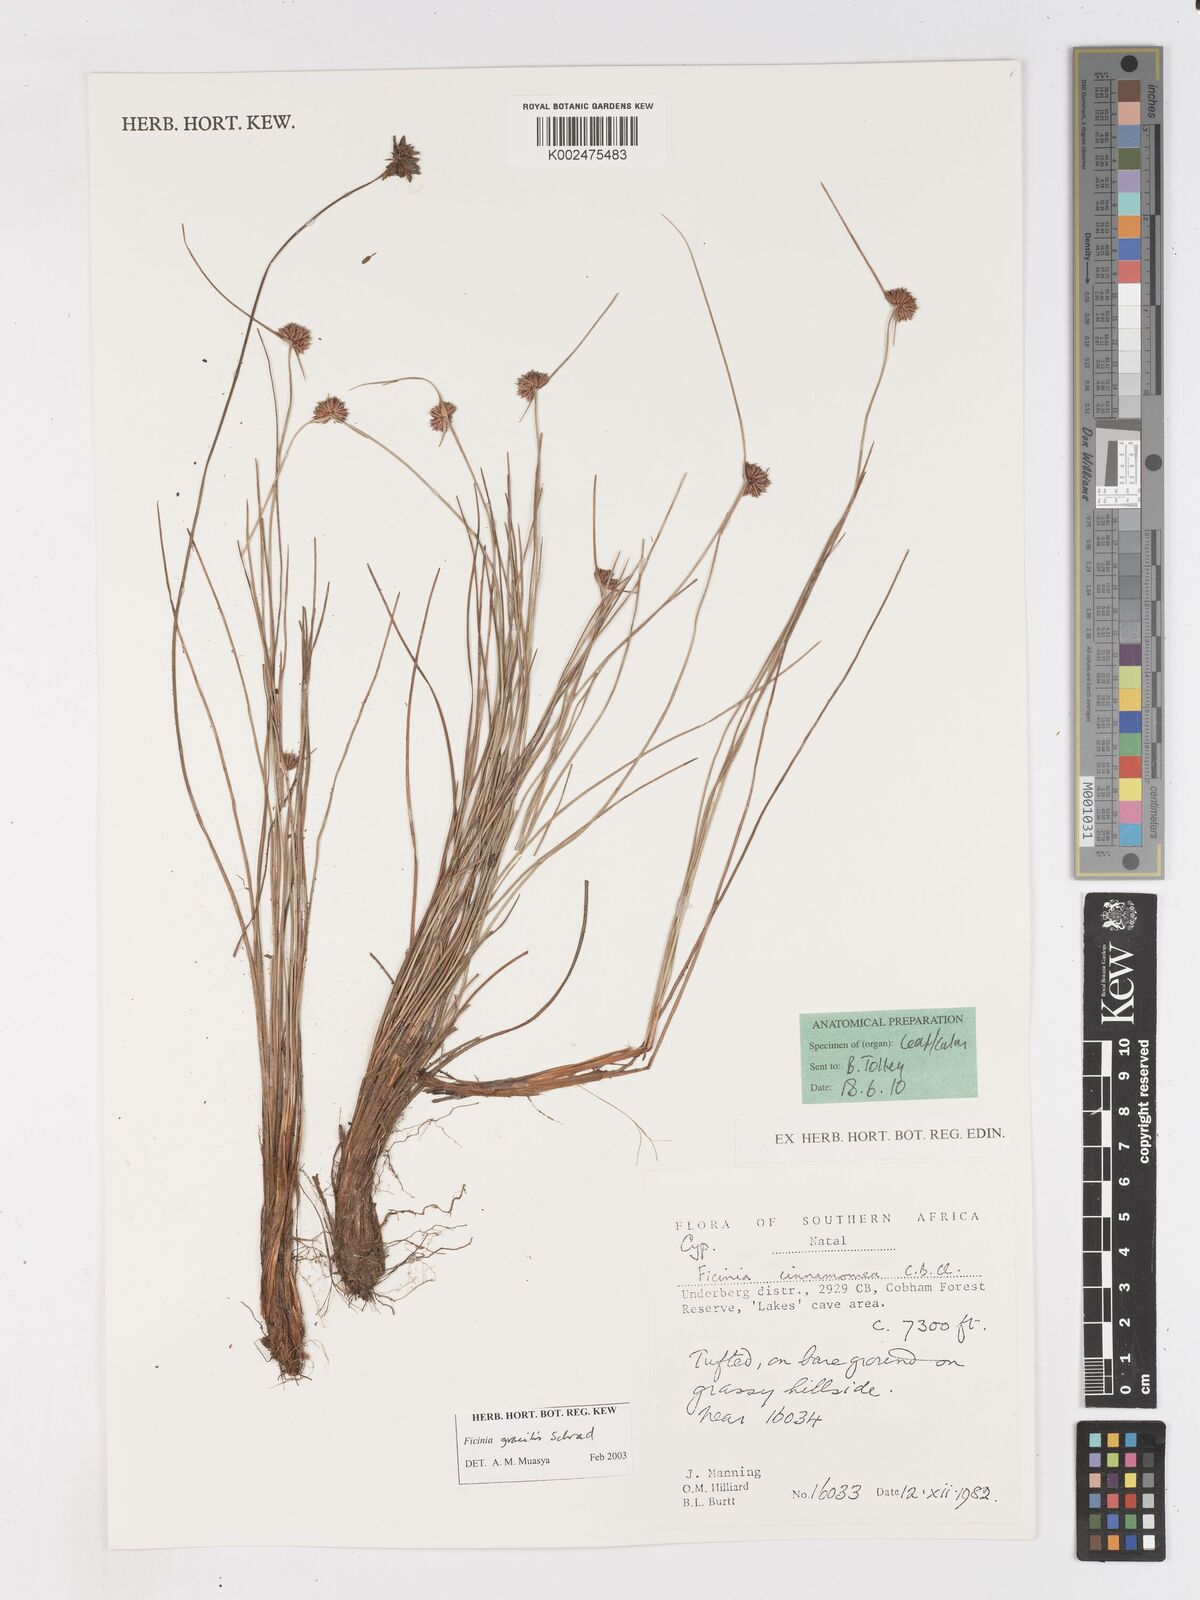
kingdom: Plantae
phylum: Tracheophyta
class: Liliopsida
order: Poales
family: Cyperaceae
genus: Ficinia
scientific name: Ficinia gracilis
